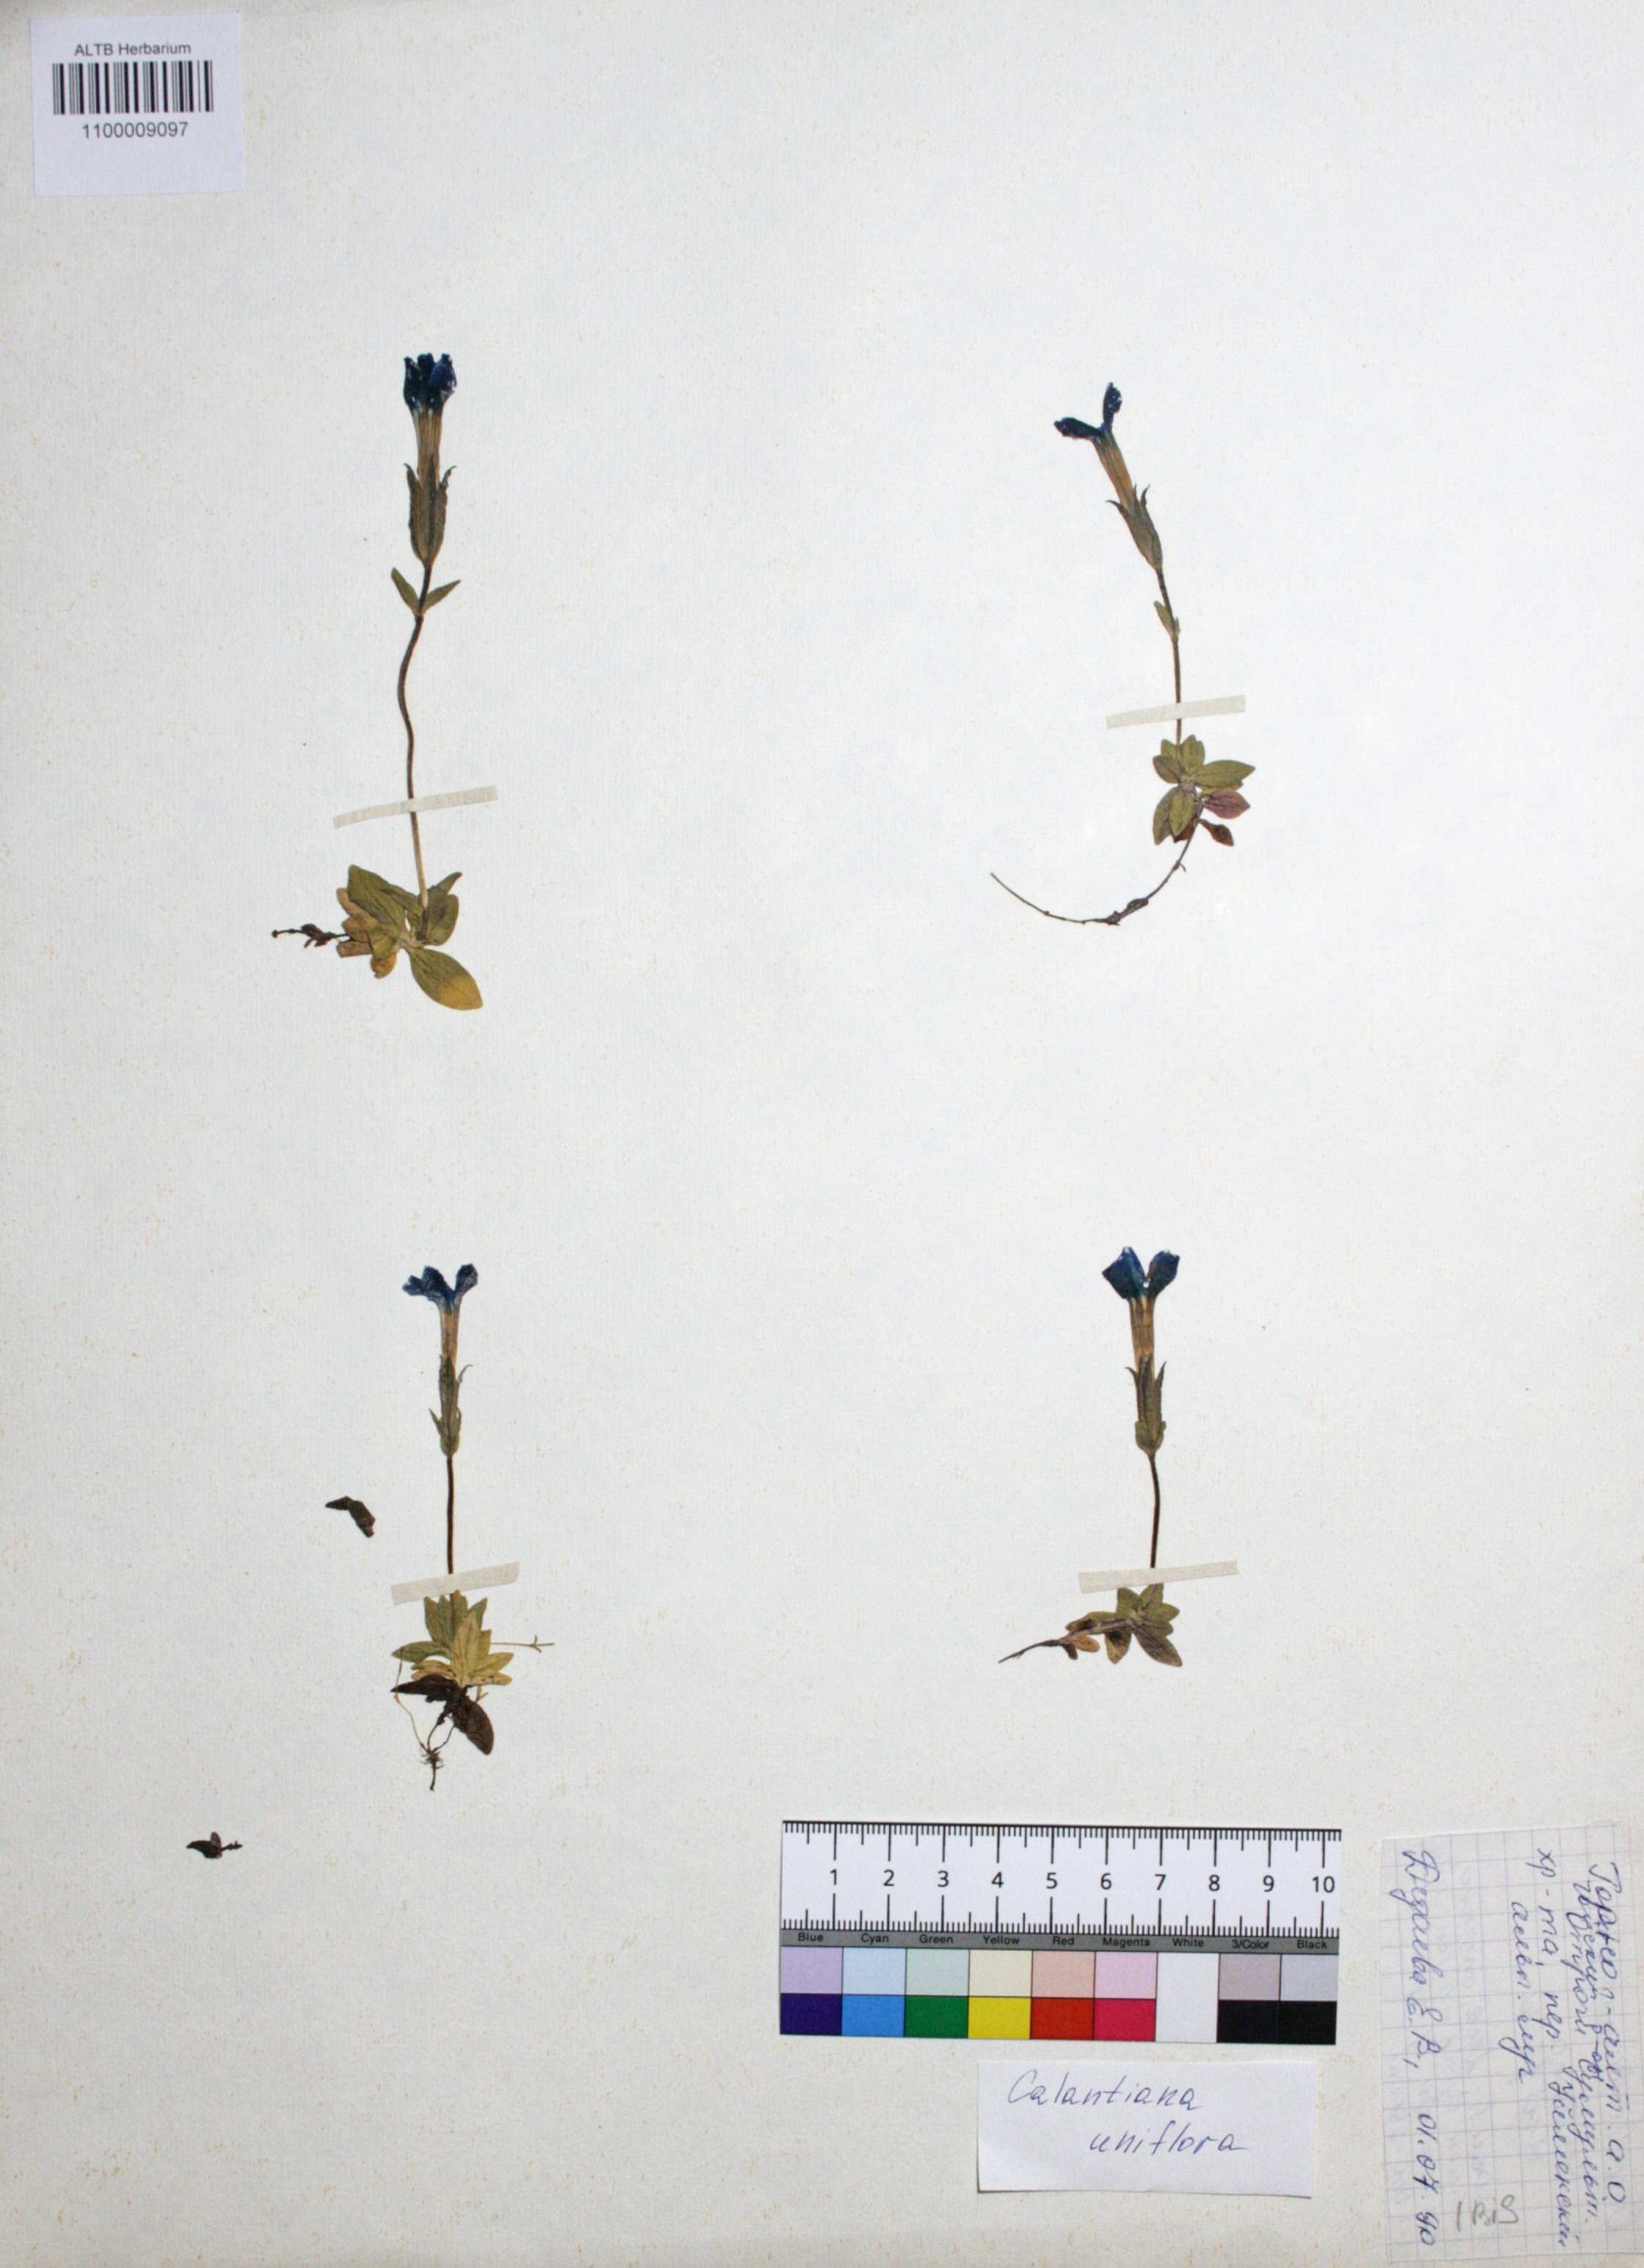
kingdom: Plantae
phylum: Tracheophyta
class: Magnoliopsida
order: Gentianales
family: Gentianaceae
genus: Gentiana
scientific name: Gentiana uniflora
